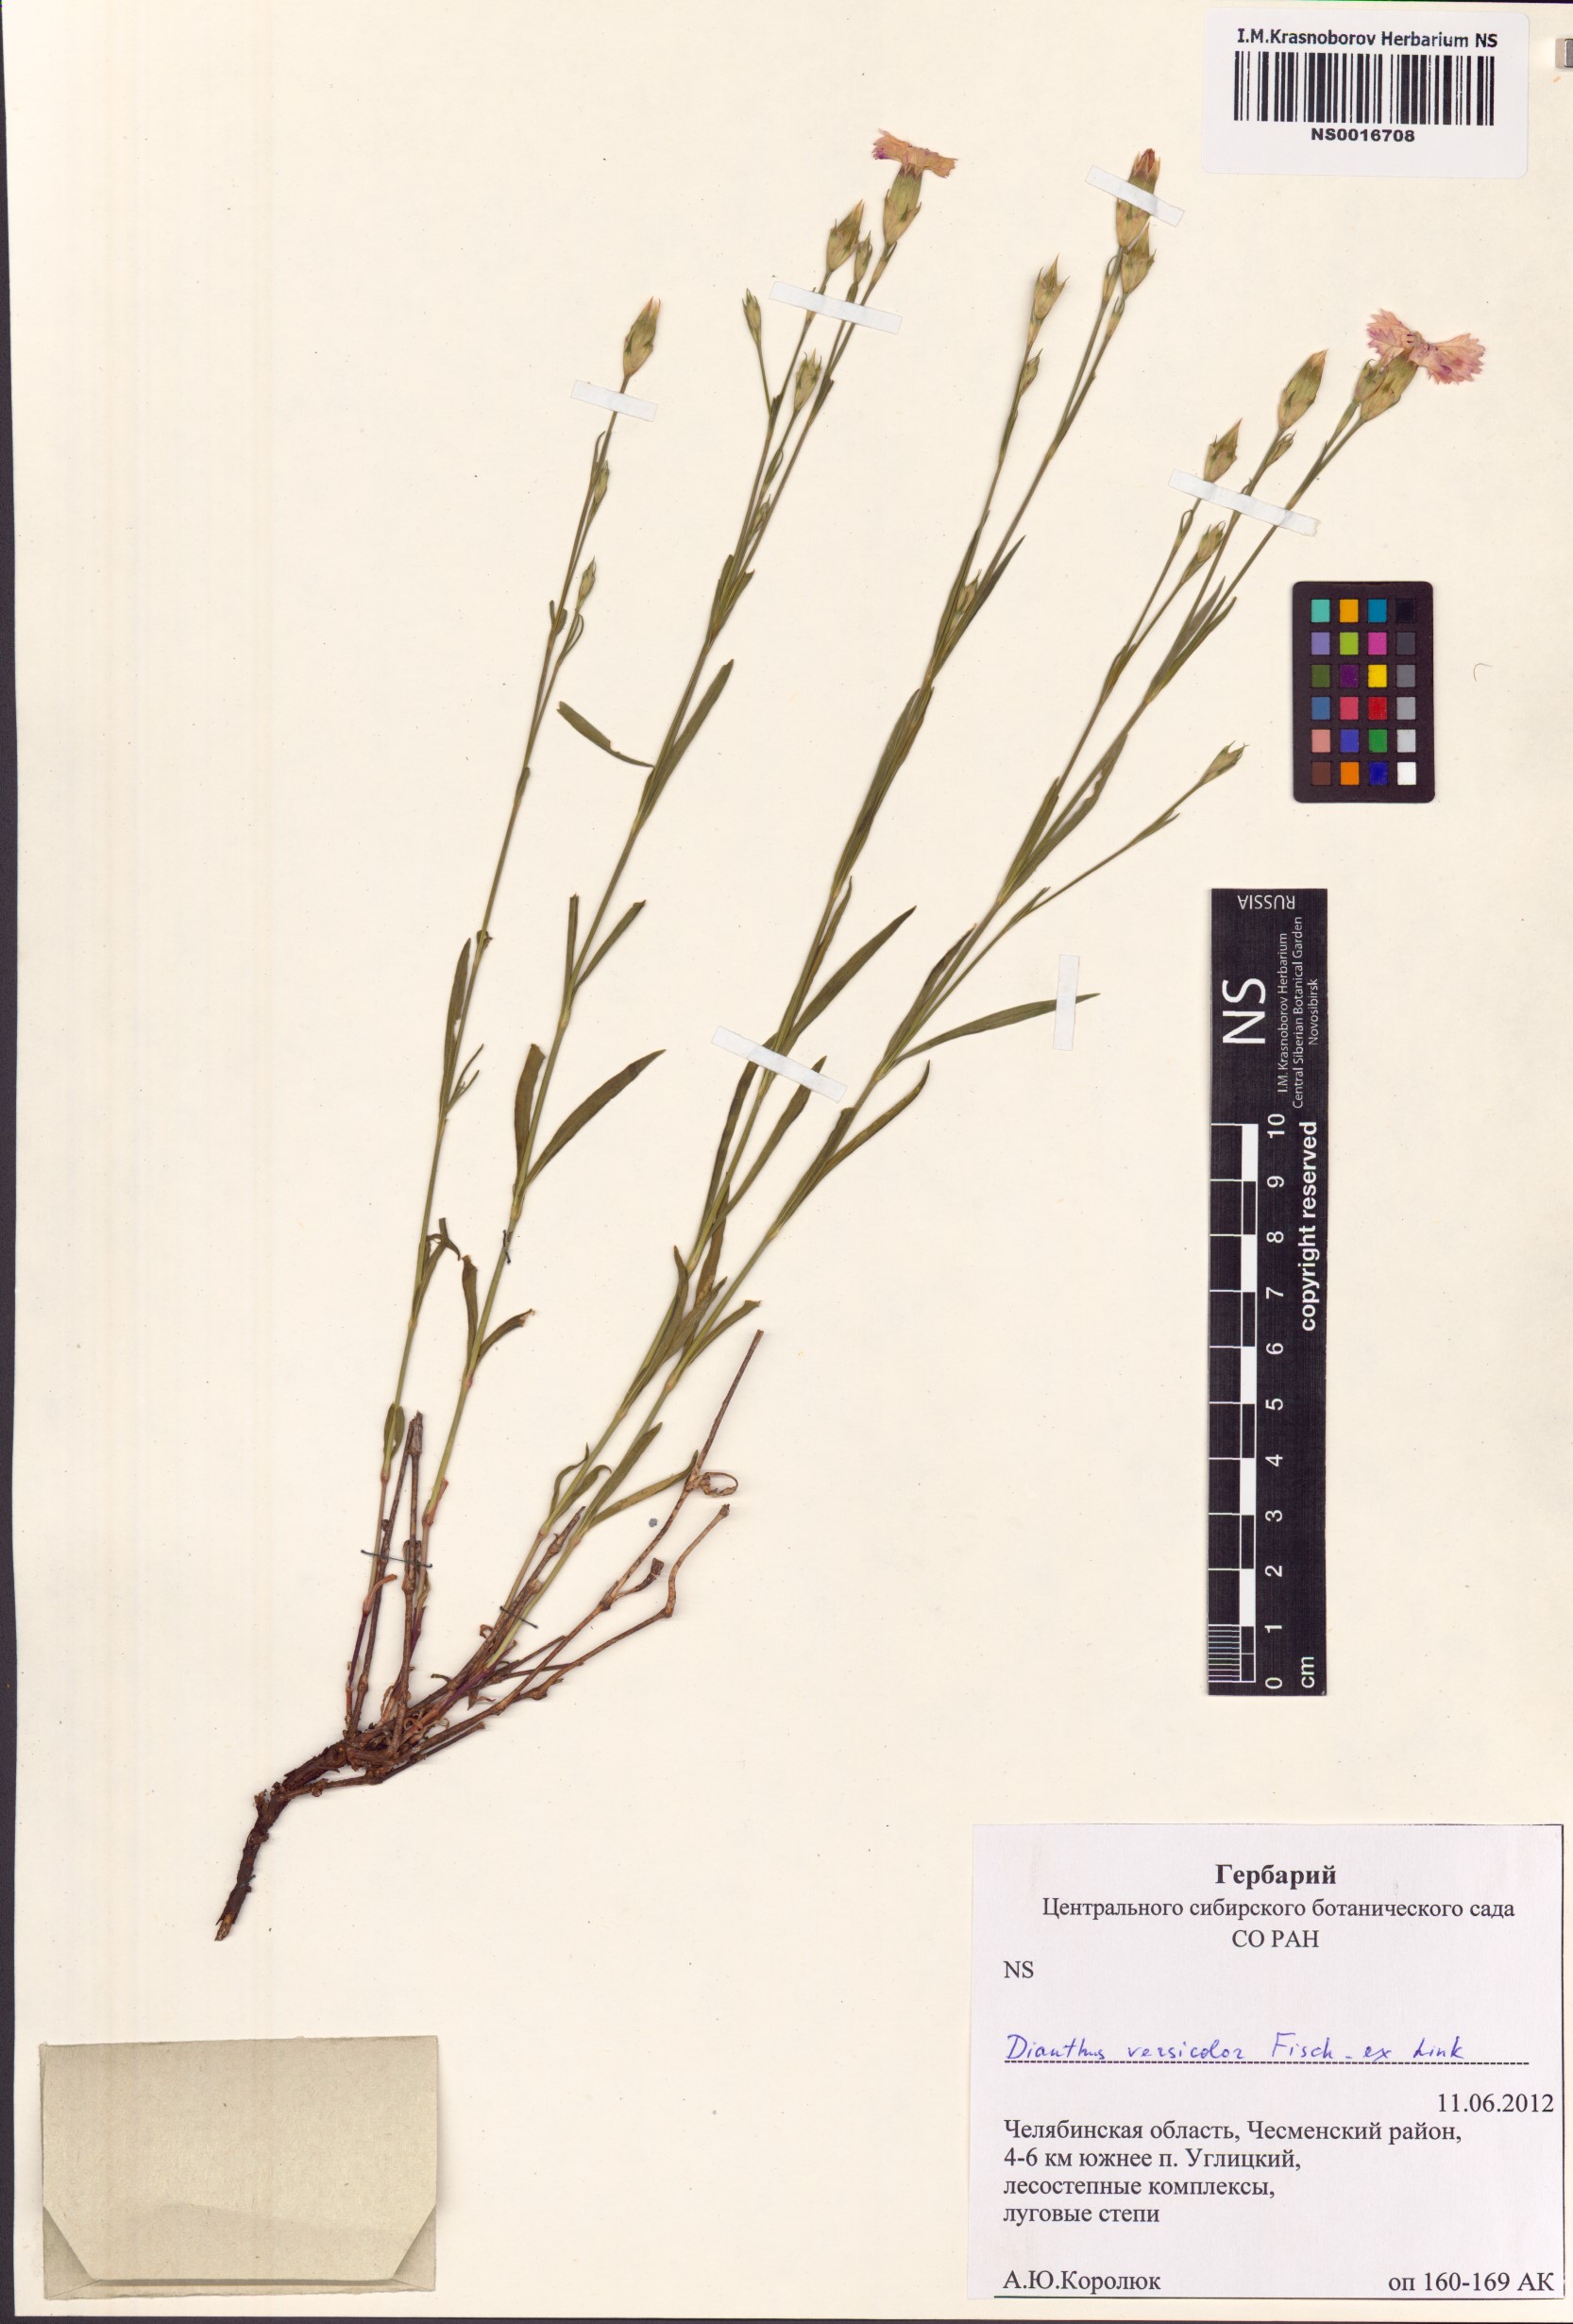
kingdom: Plantae
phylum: Tracheophyta
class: Magnoliopsida
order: Caryophyllales
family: Caryophyllaceae
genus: Dianthus
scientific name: Dianthus chinensis
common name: Rainbow pink
